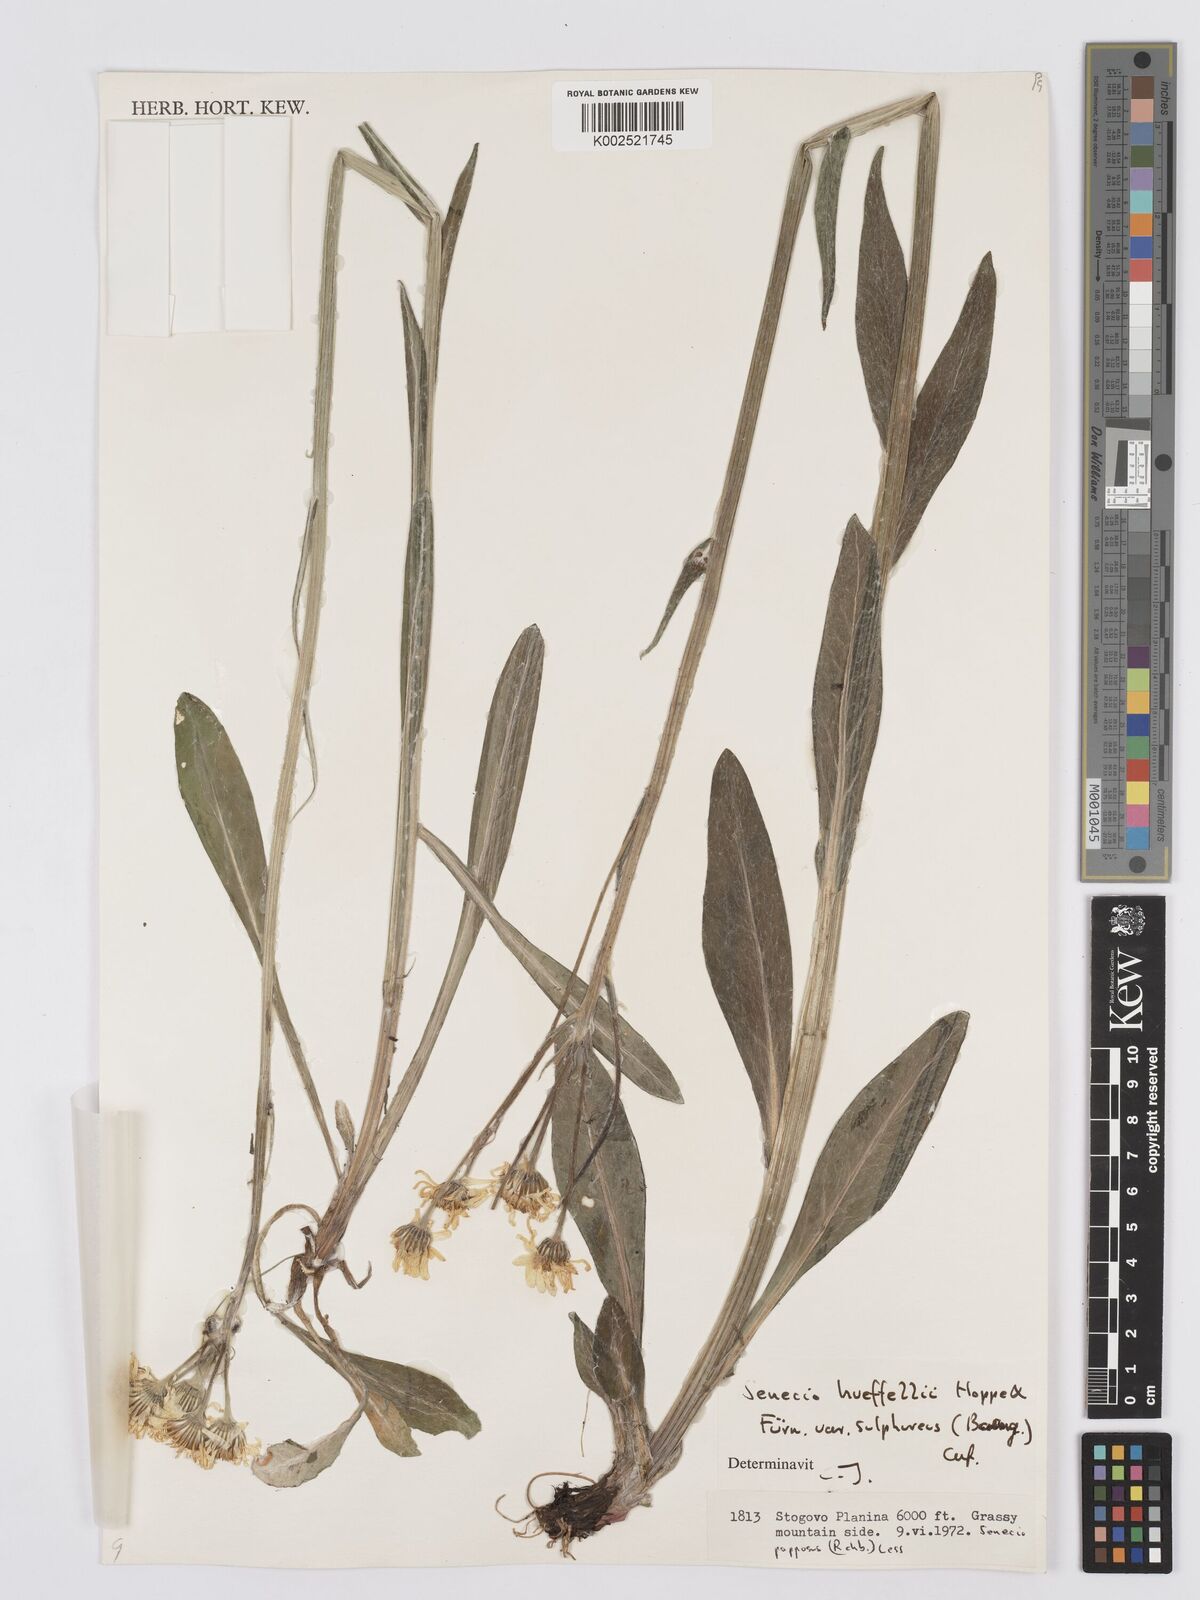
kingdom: Plantae
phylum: Tracheophyta
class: Magnoliopsida
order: Asterales
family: Asteraceae
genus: Tephroseris
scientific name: Tephroseris papposa
